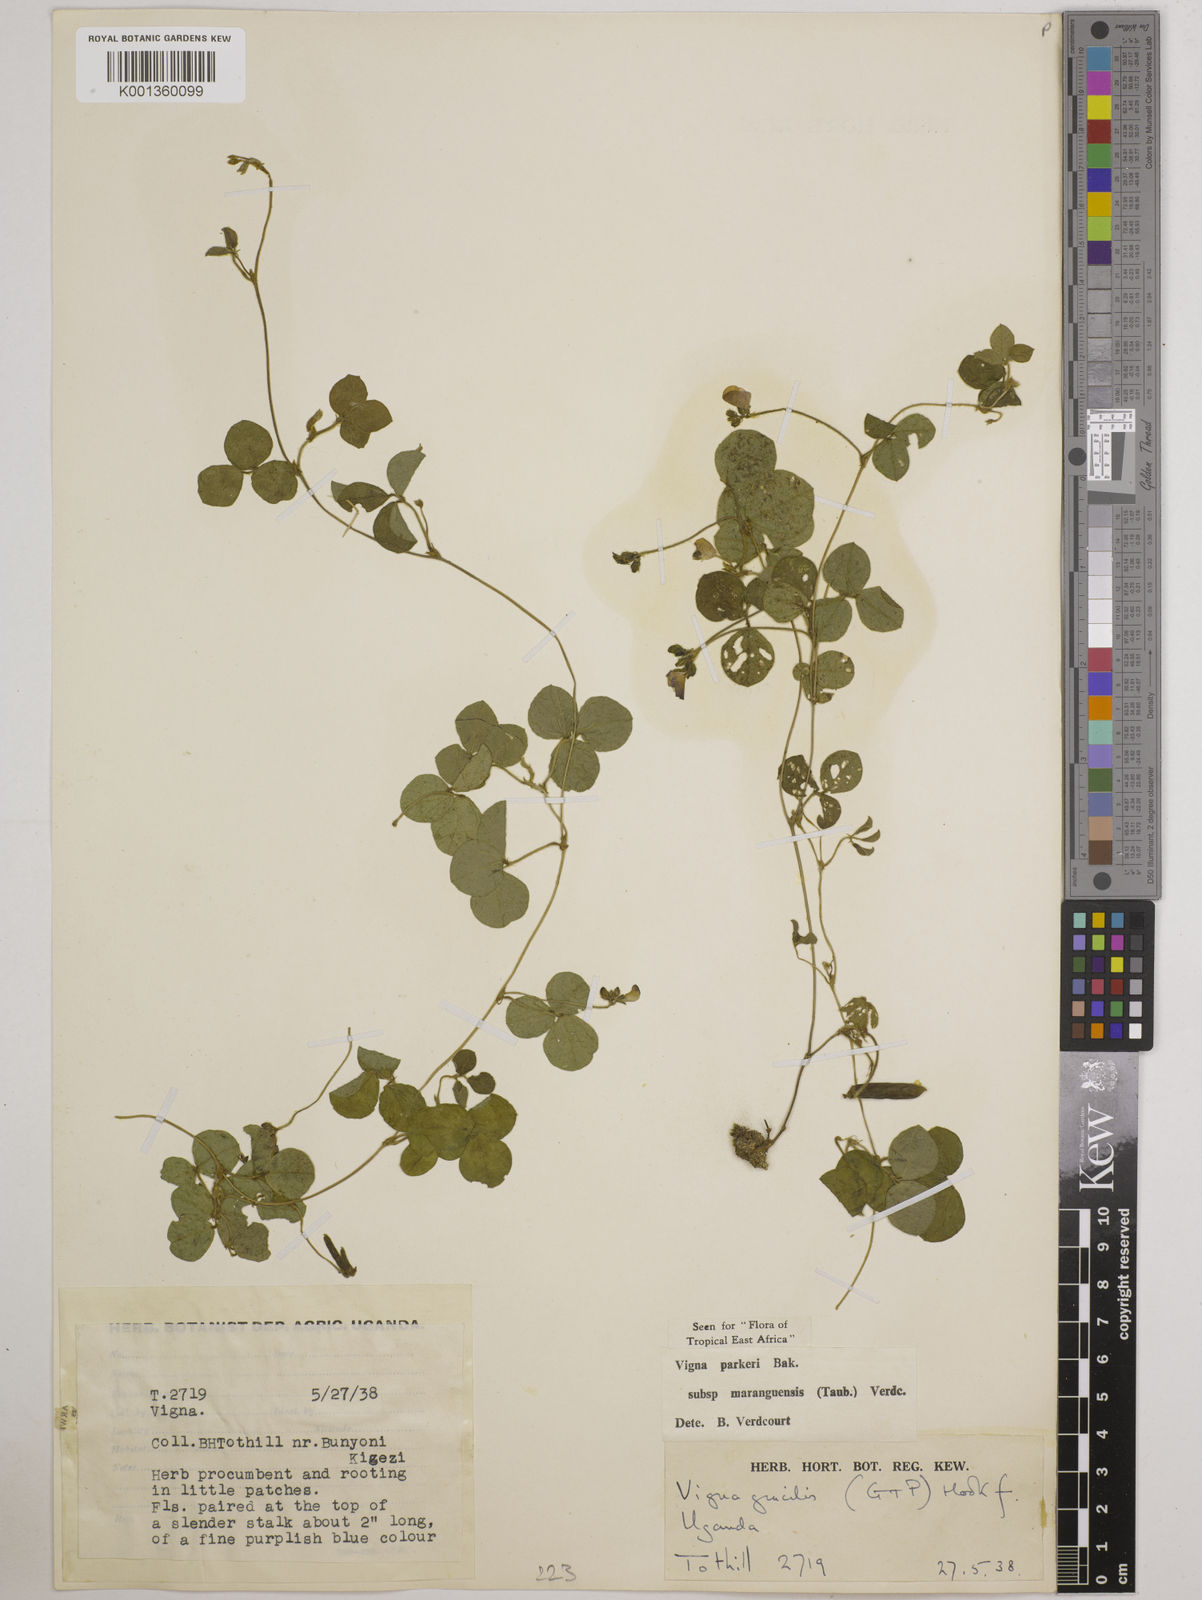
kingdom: Plantae
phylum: Tracheophyta
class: Magnoliopsida
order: Fabales
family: Fabaceae
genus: Vigna
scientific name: Vigna parkeri
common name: Creeping vigna
